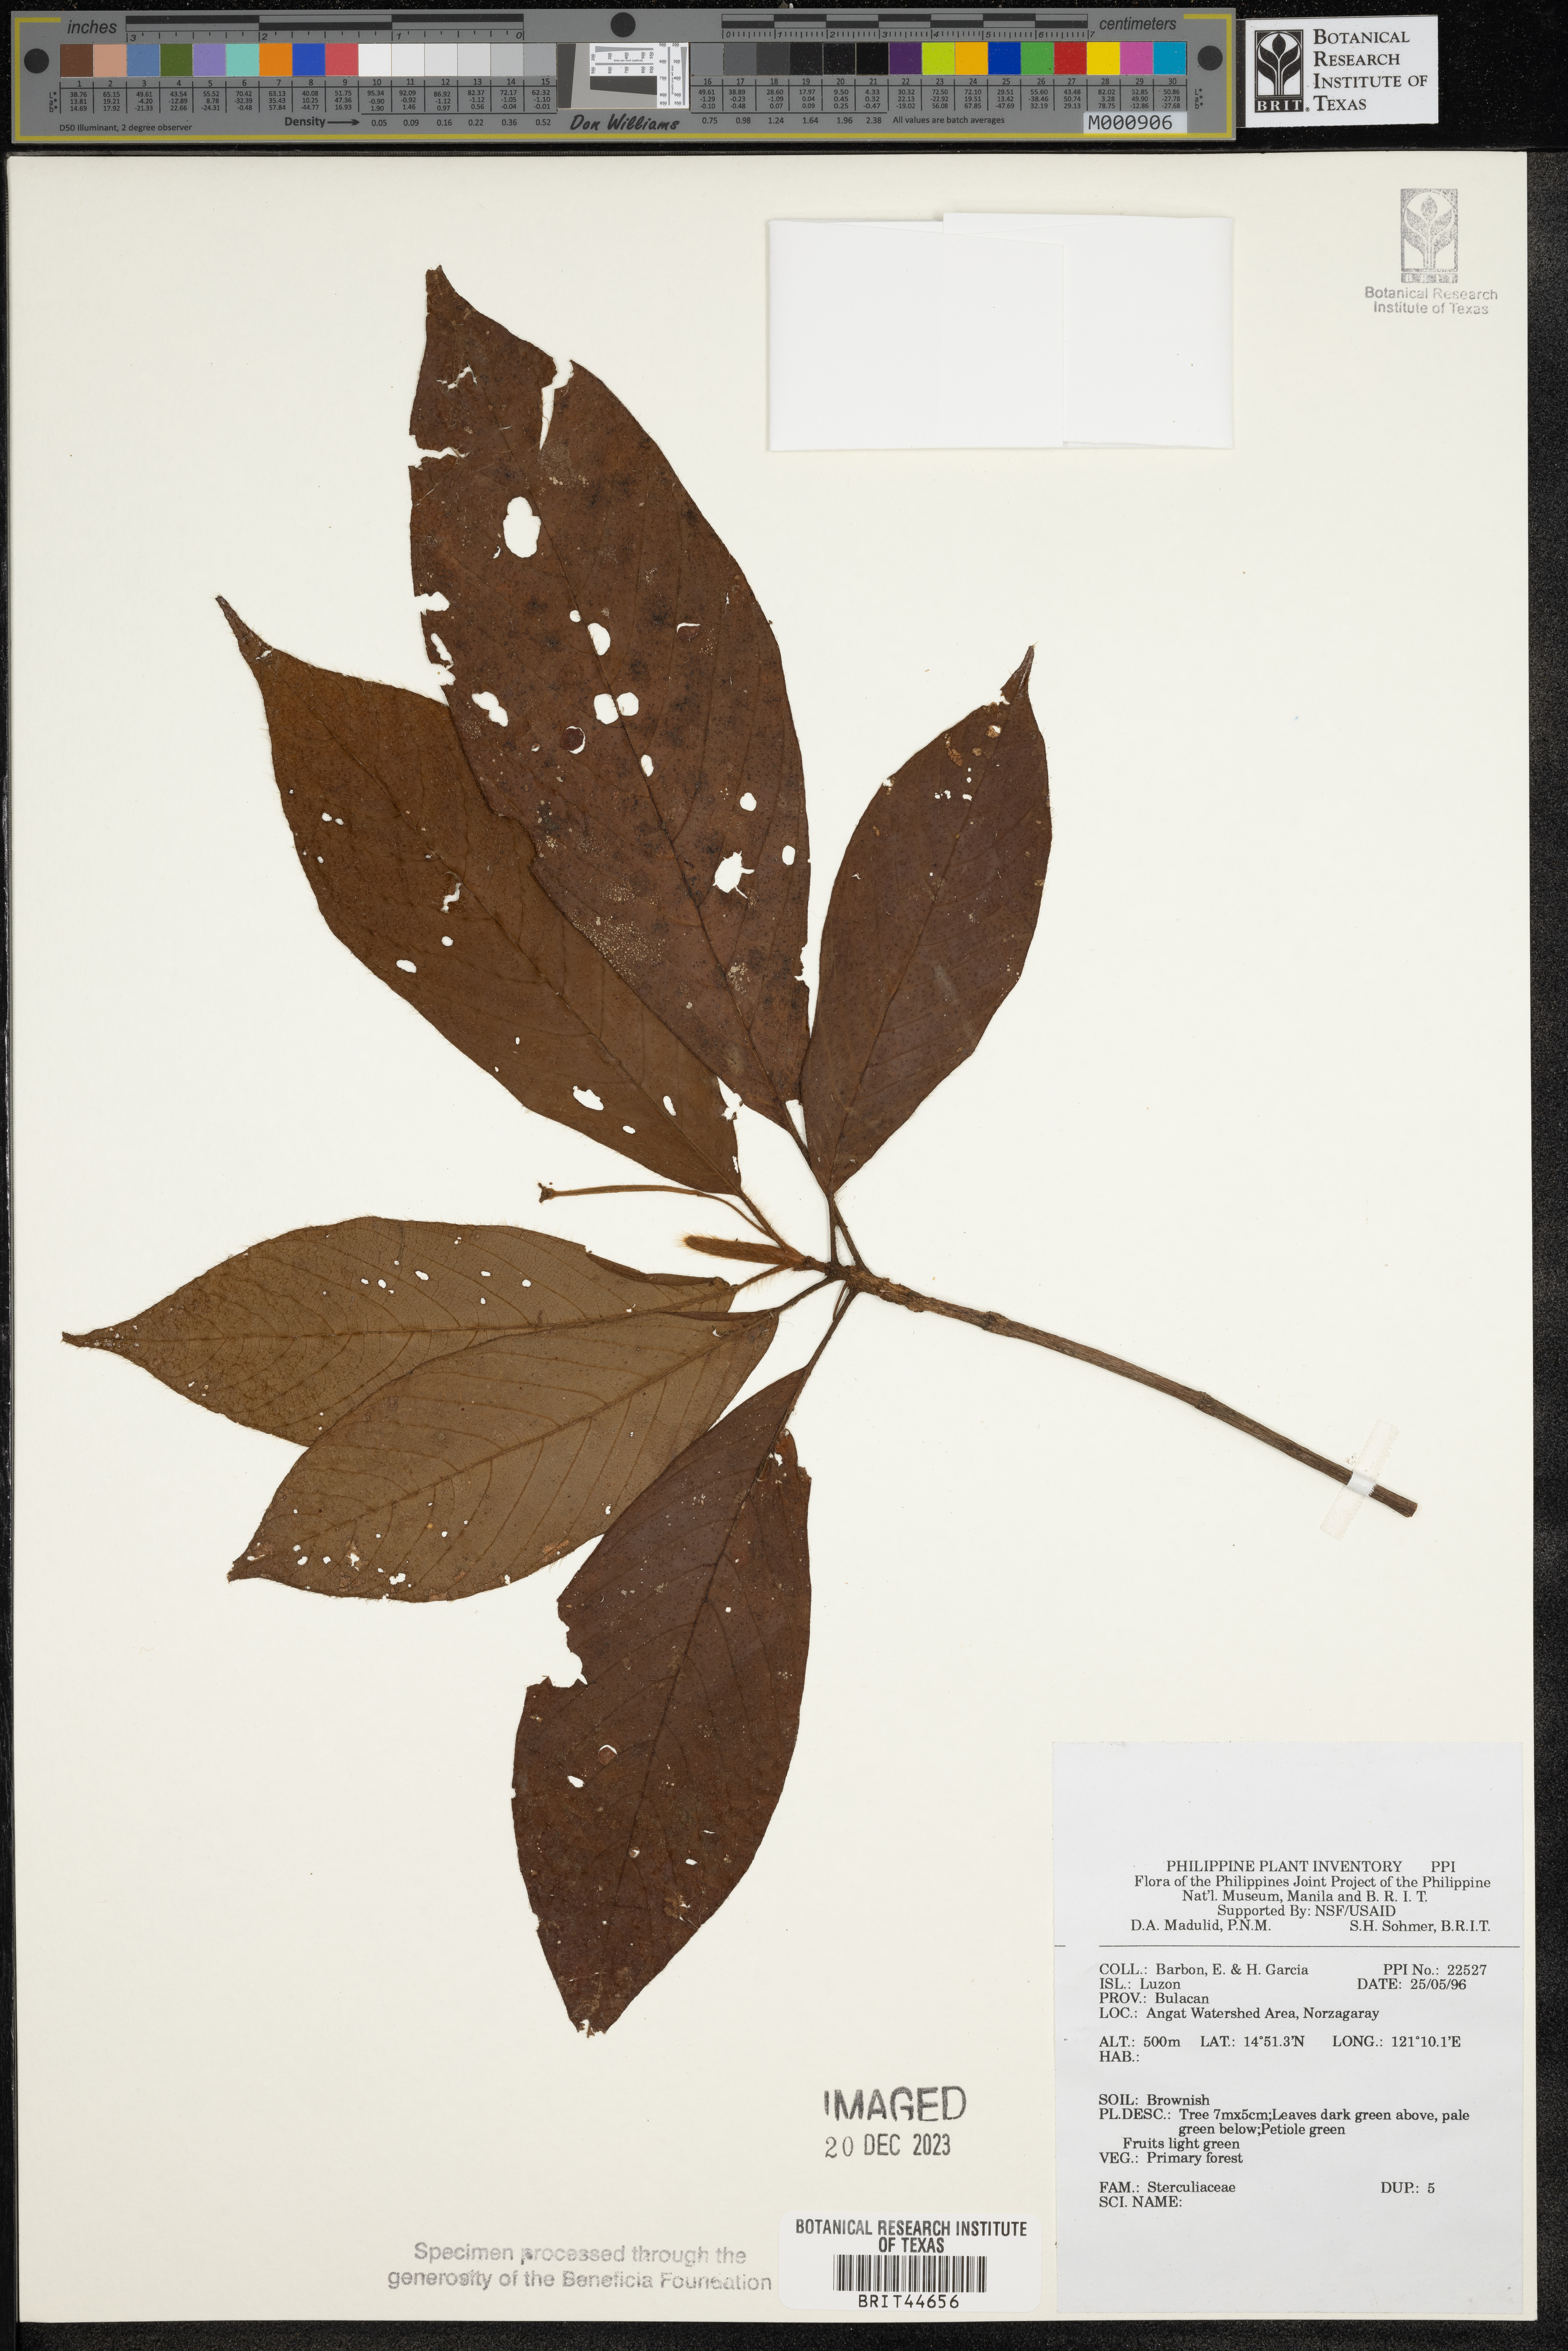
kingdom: Plantae
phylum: Tracheophyta
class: Magnoliopsida
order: Malvales
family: Sterculiaceae
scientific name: Sterculiaceae
